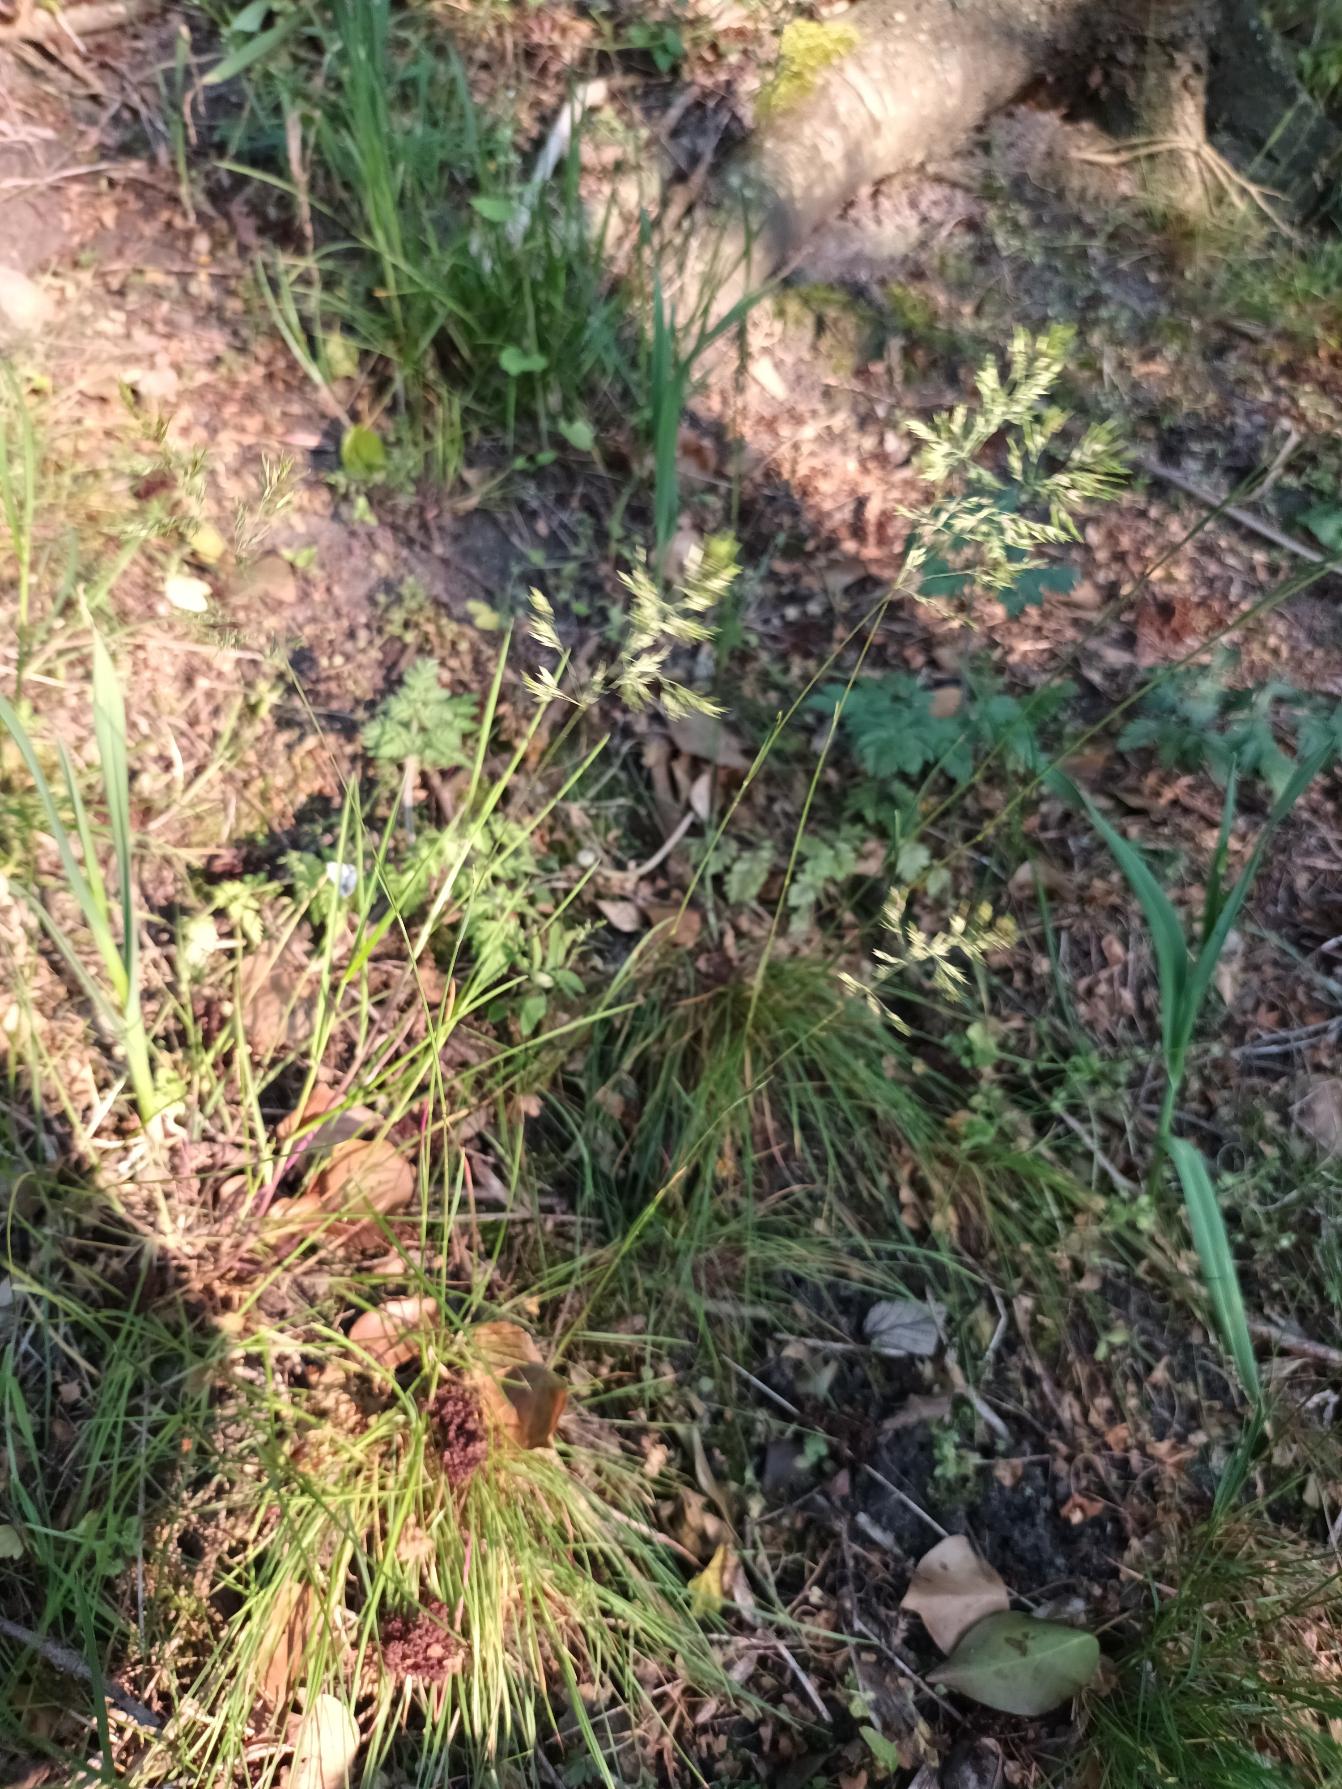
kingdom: Plantae
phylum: Tracheophyta
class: Liliopsida
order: Poales
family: Poaceae
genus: Poa
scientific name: Poa bulbosa
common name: Løg-rapgræs
